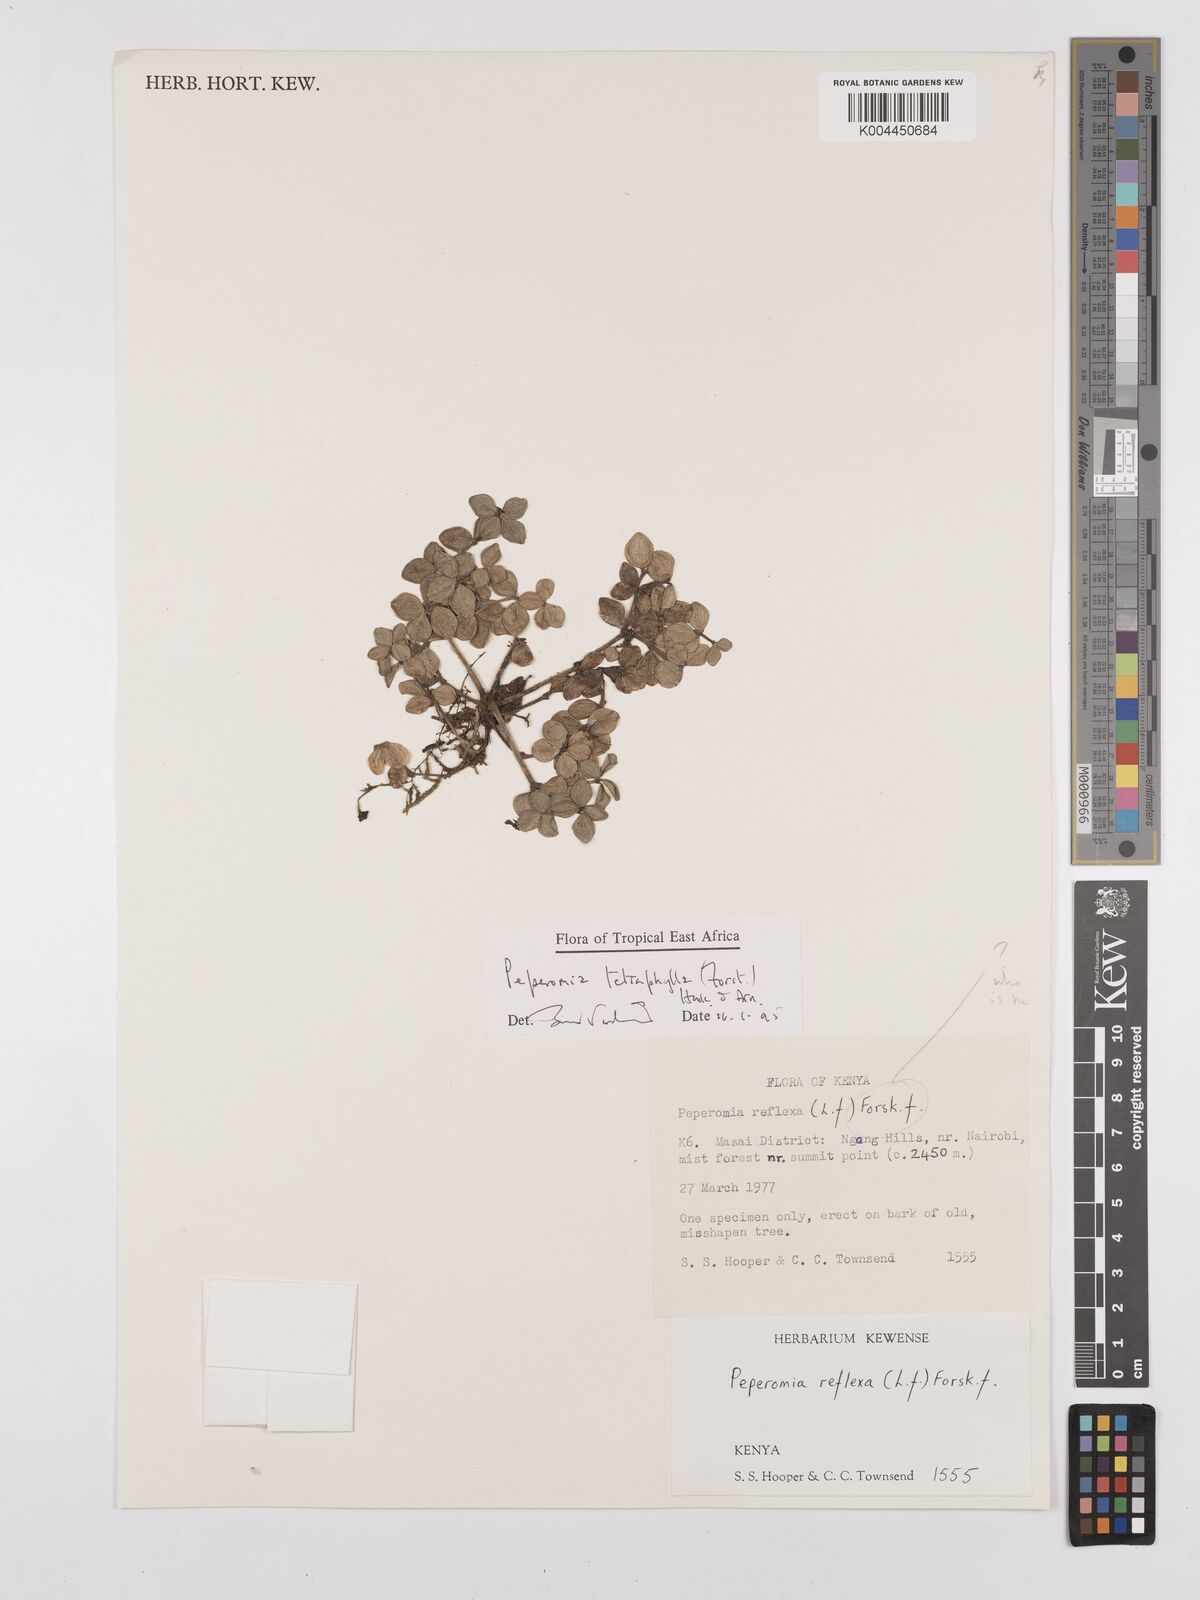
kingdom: Plantae
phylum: Tracheophyta
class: Magnoliopsida
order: Piperales
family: Piperaceae
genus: Peperomia
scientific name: Peperomia tetraphylla
